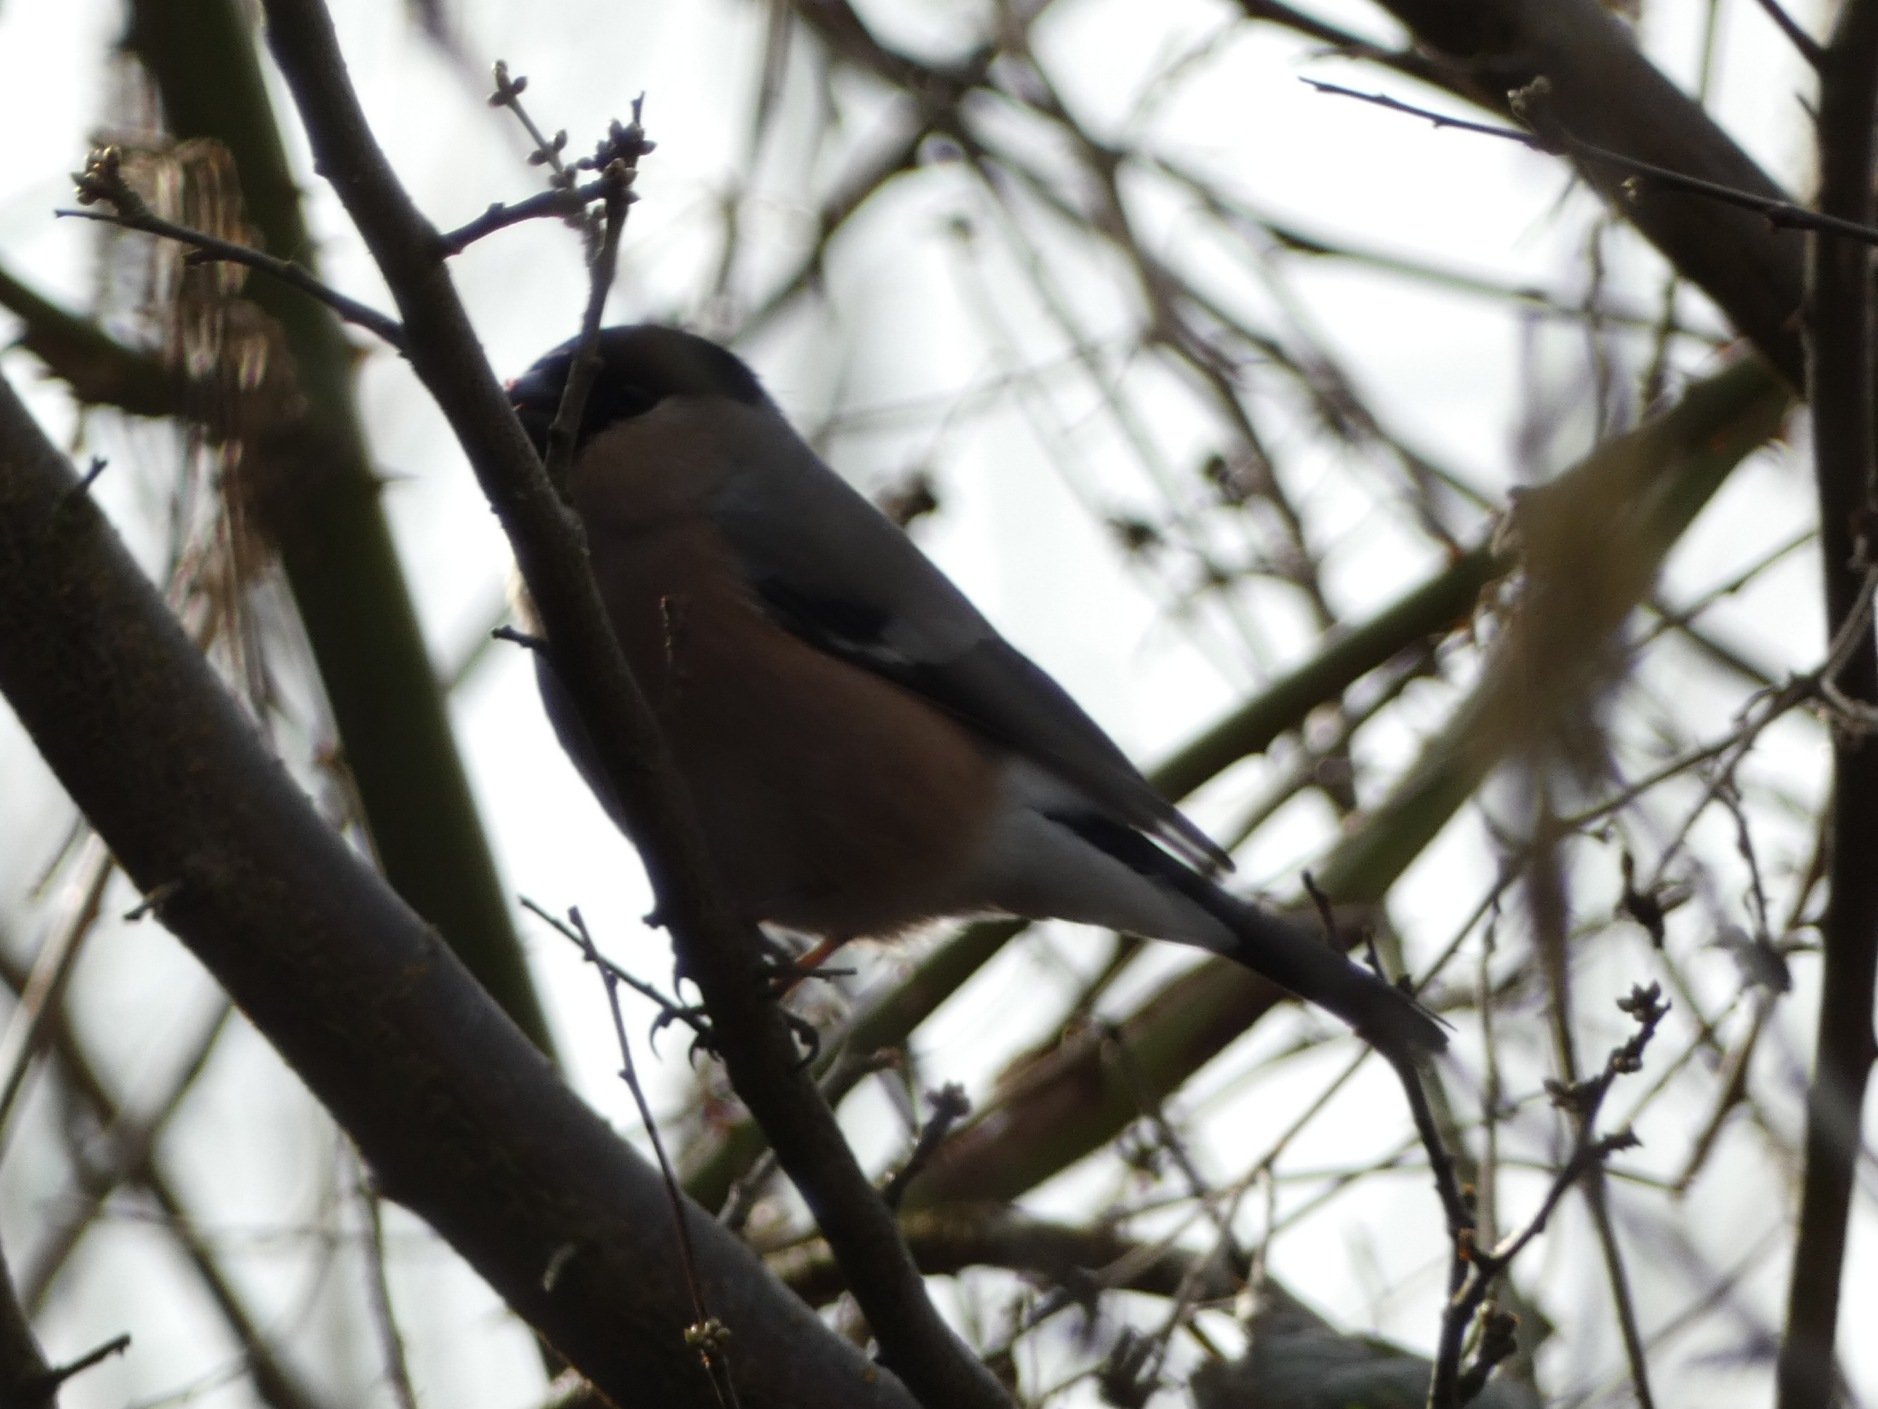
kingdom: Animalia
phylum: Chordata
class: Aves
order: Passeriformes
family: Fringillidae
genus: Pyrrhula
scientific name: Pyrrhula pyrrhula
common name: Dompap
